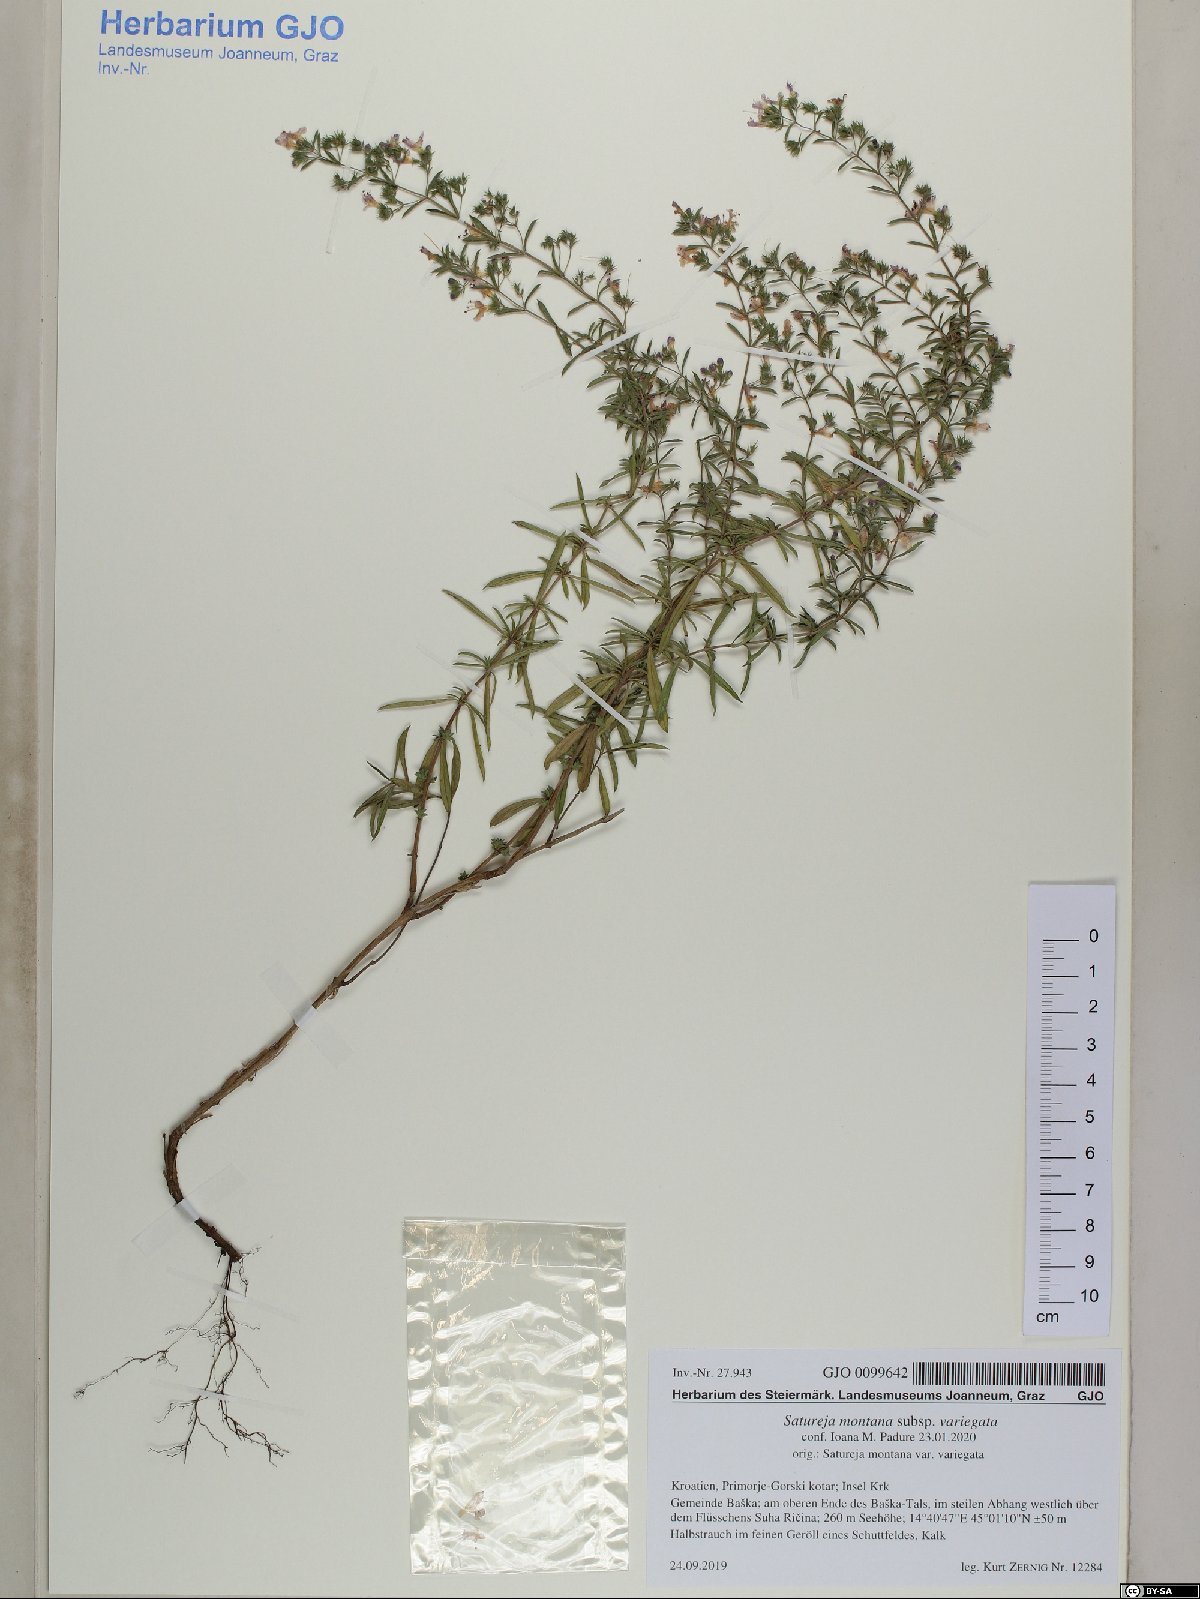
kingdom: Plantae
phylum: Tracheophyta
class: Magnoliopsida
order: Lamiales
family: Lamiaceae
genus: Satureja
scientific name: Satureja montana
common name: Winter savory
